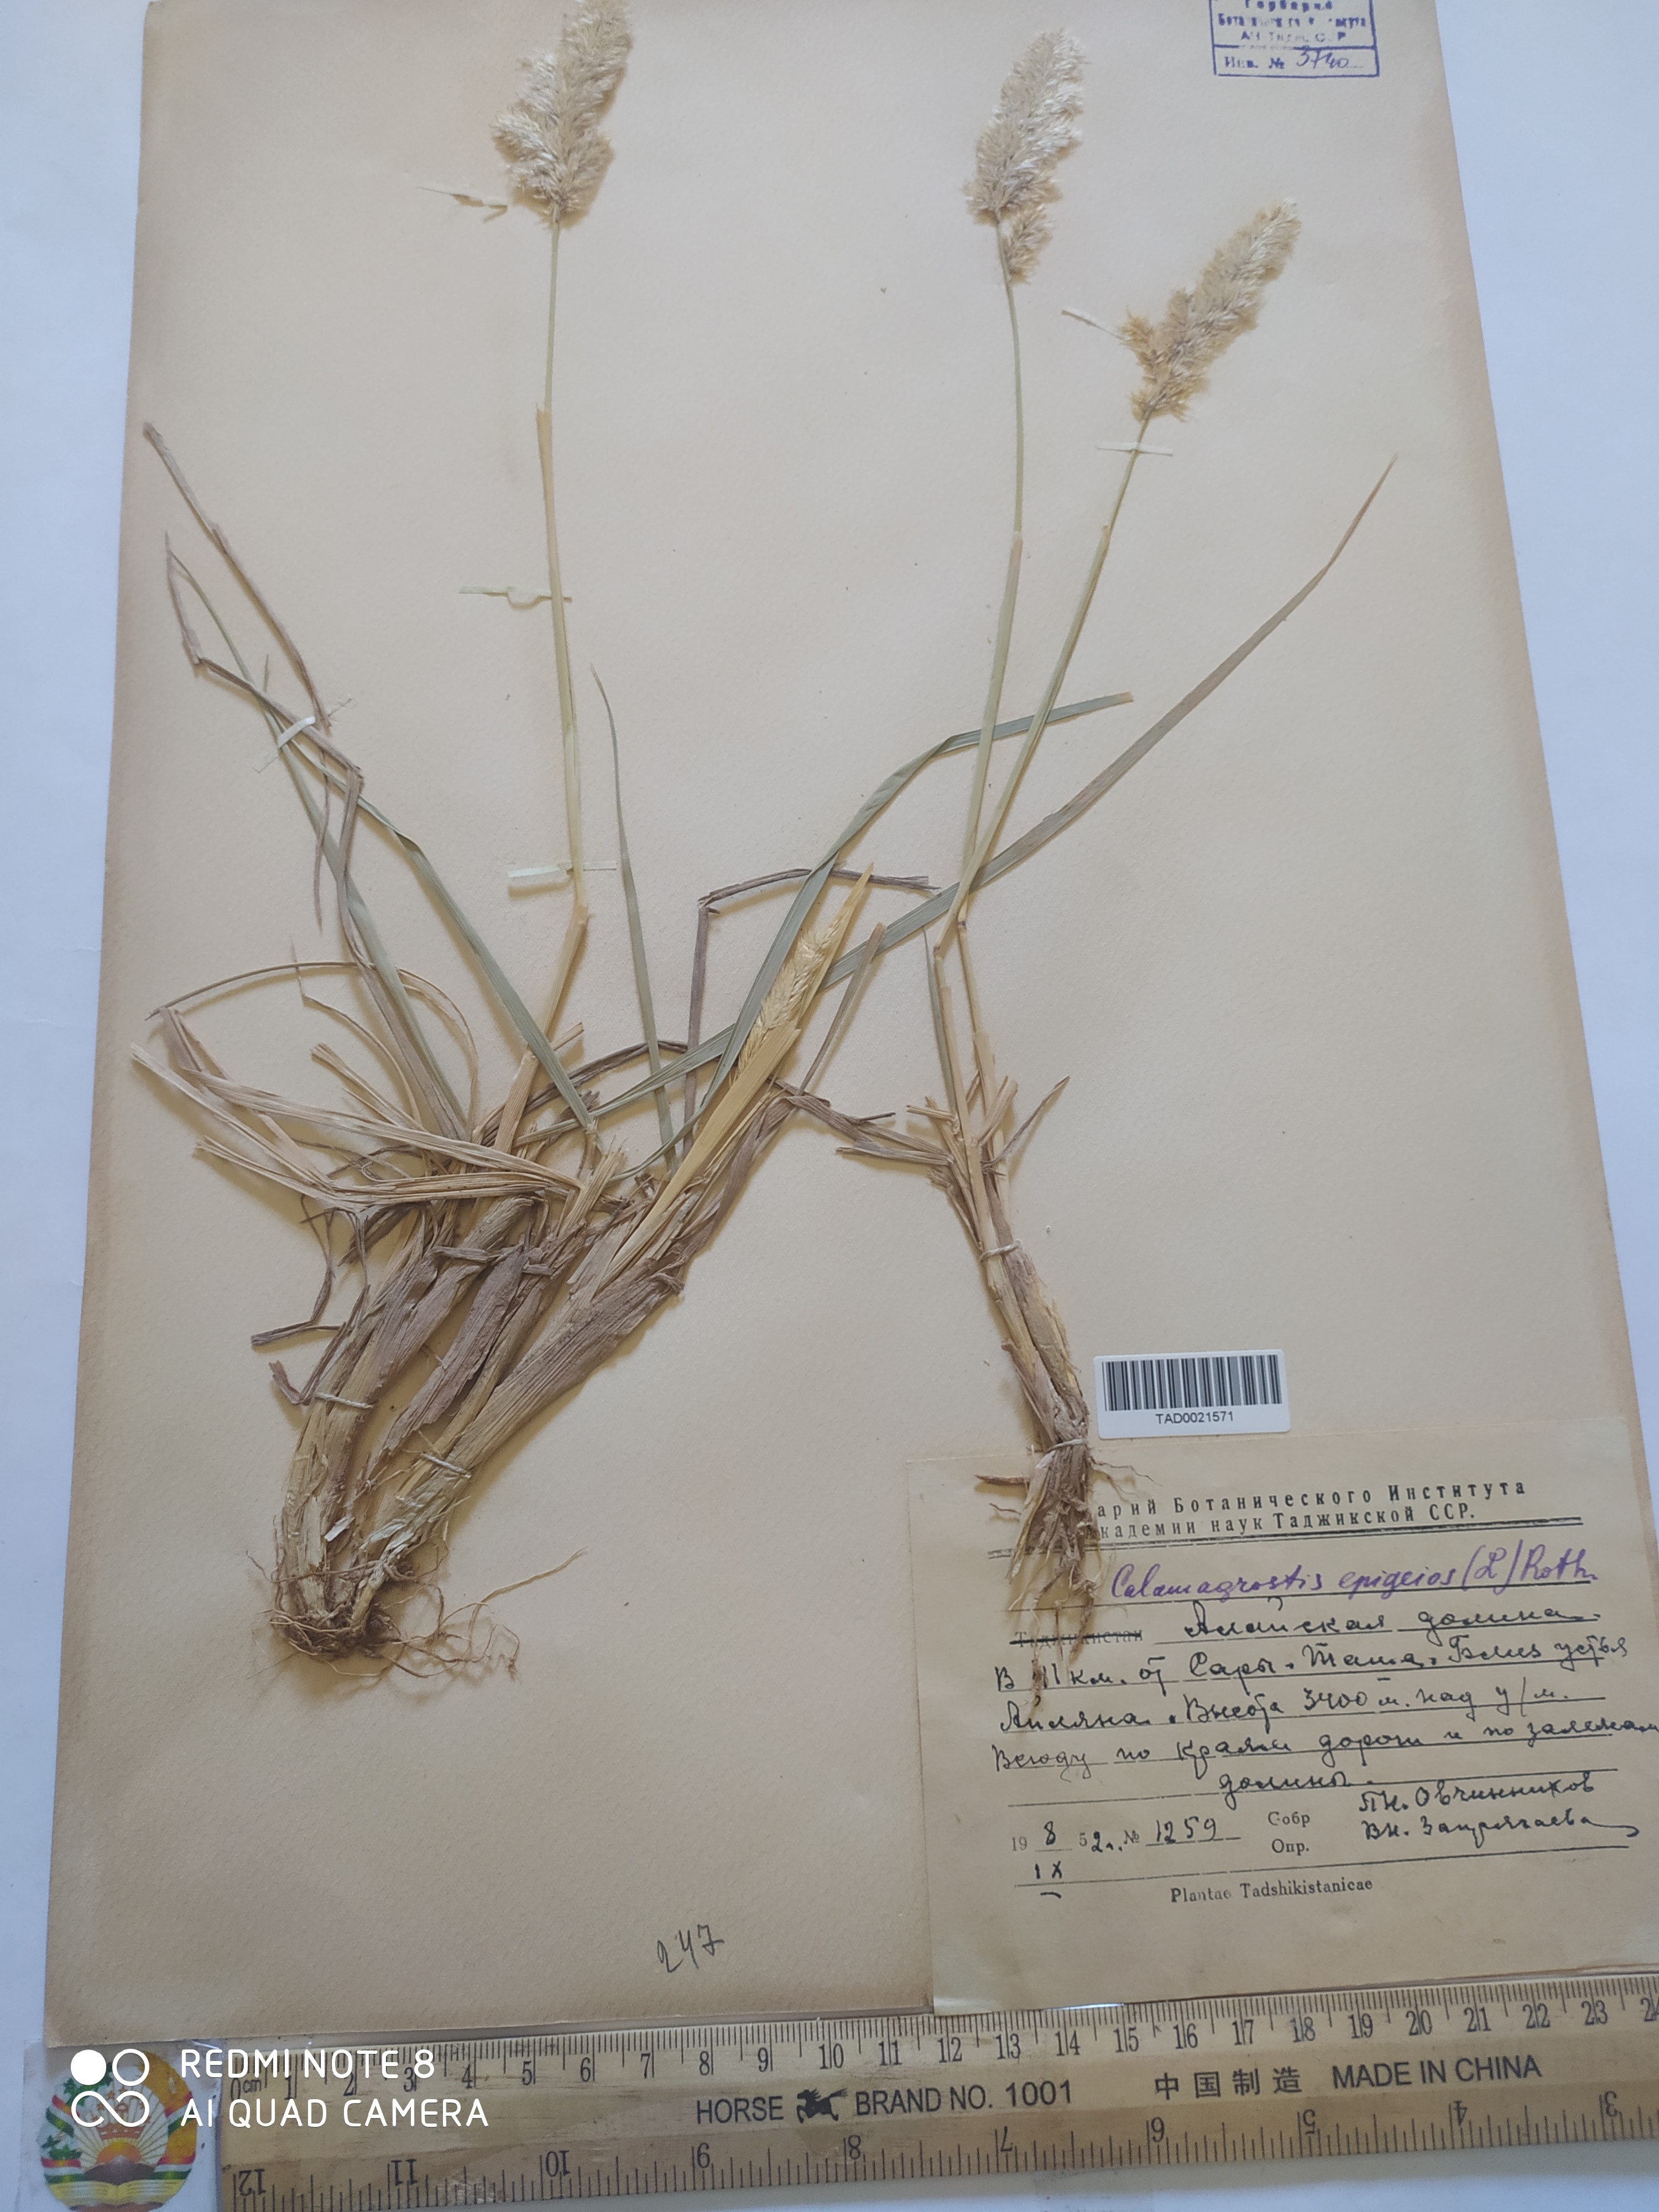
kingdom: Plantae
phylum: Tracheophyta
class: Liliopsida
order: Poales
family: Poaceae
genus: Calamagrostis
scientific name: Calamagrostis epigejos
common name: Wood small-reed
